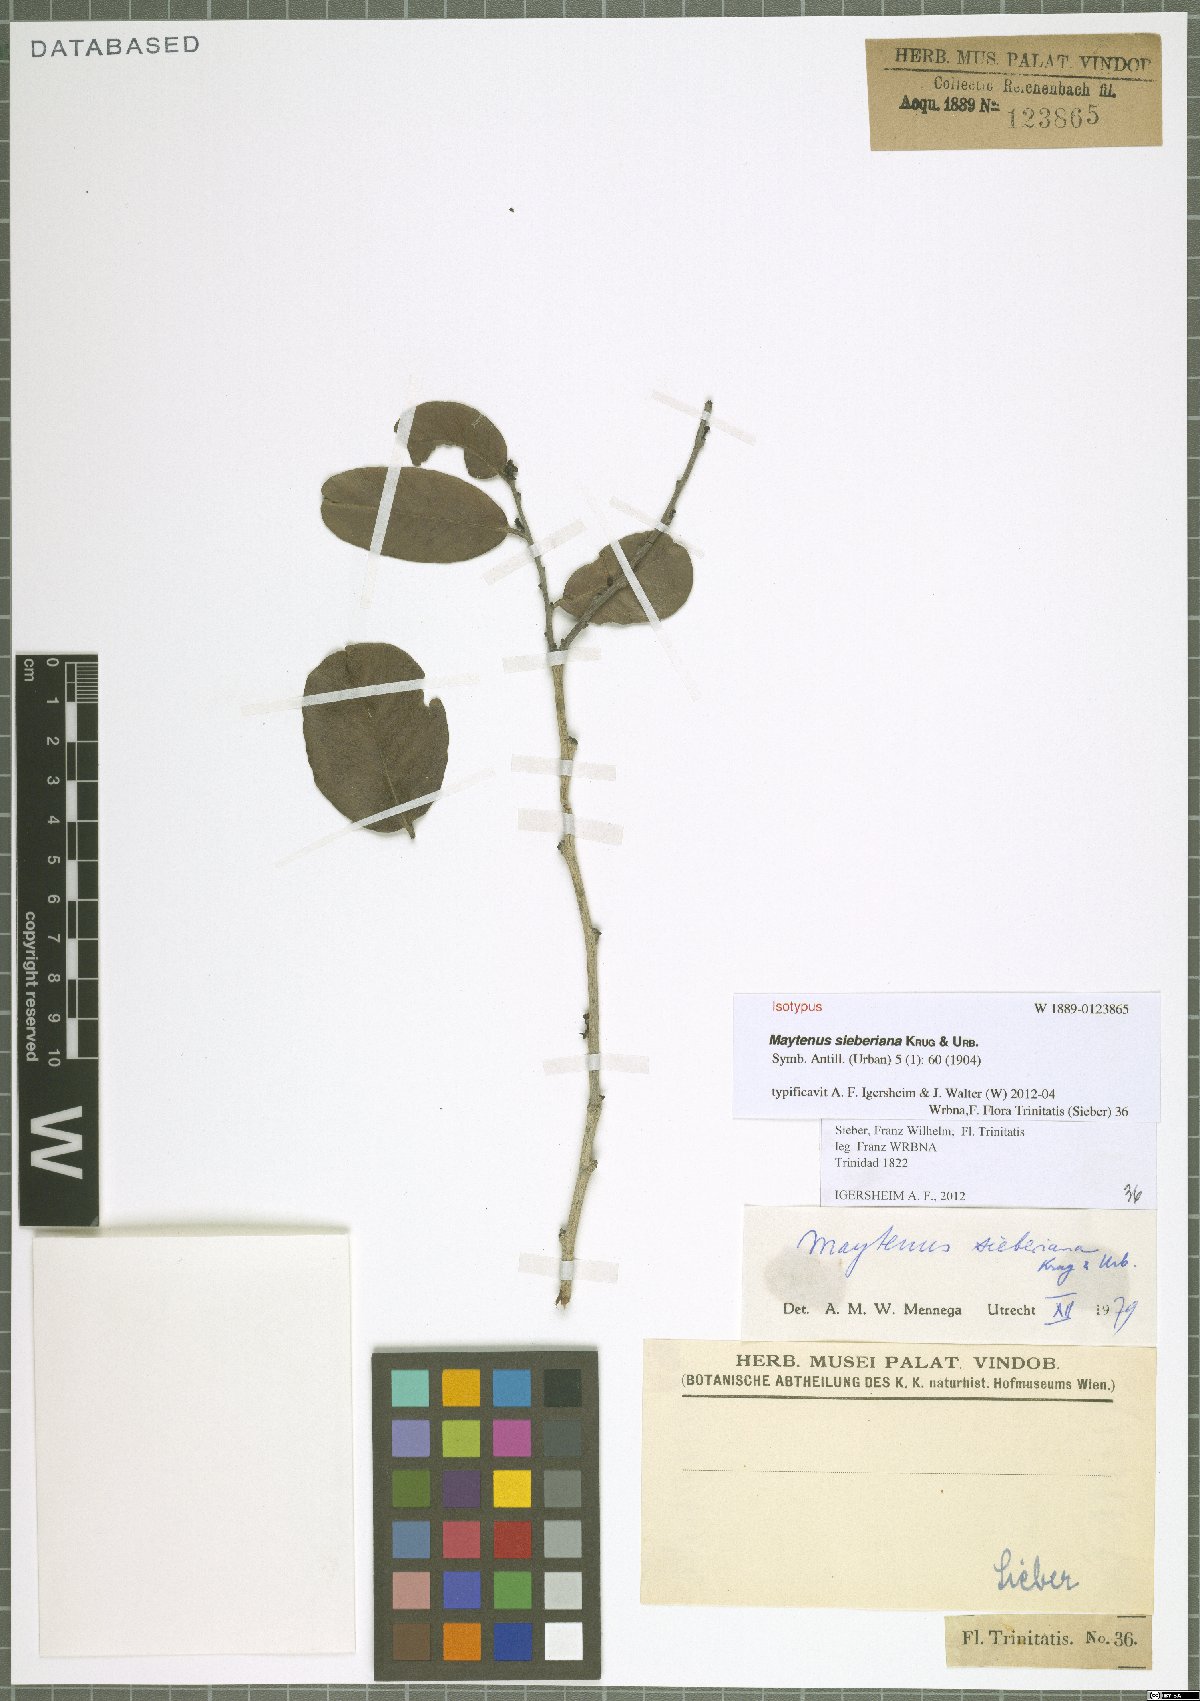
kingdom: Plantae
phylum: Tracheophyta
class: Magnoliopsida
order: Celastrales
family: Celastraceae
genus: Monteverdia
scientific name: Monteverdia sieberiana
